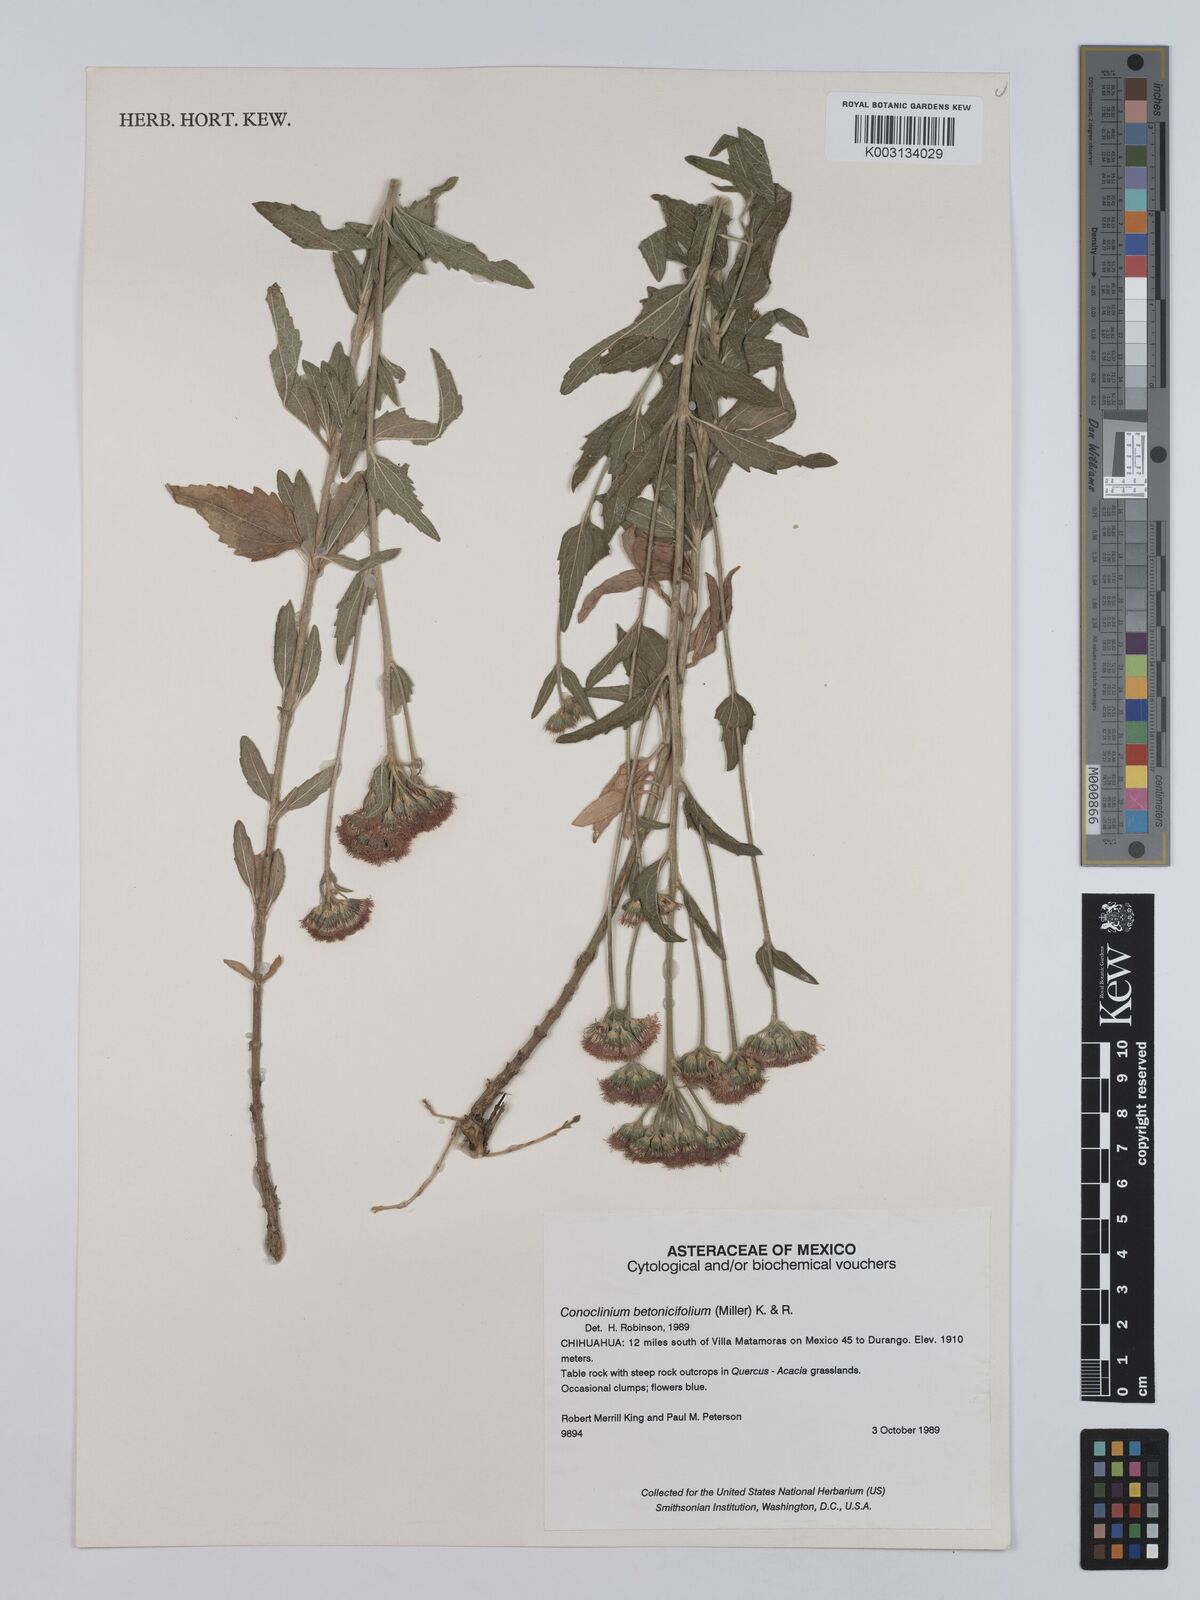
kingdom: Plantae
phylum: Tracheophyta
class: Magnoliopsida
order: Asterales
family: Asteraceae
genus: Conoclinium
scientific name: Conoclinium betonicifolium
